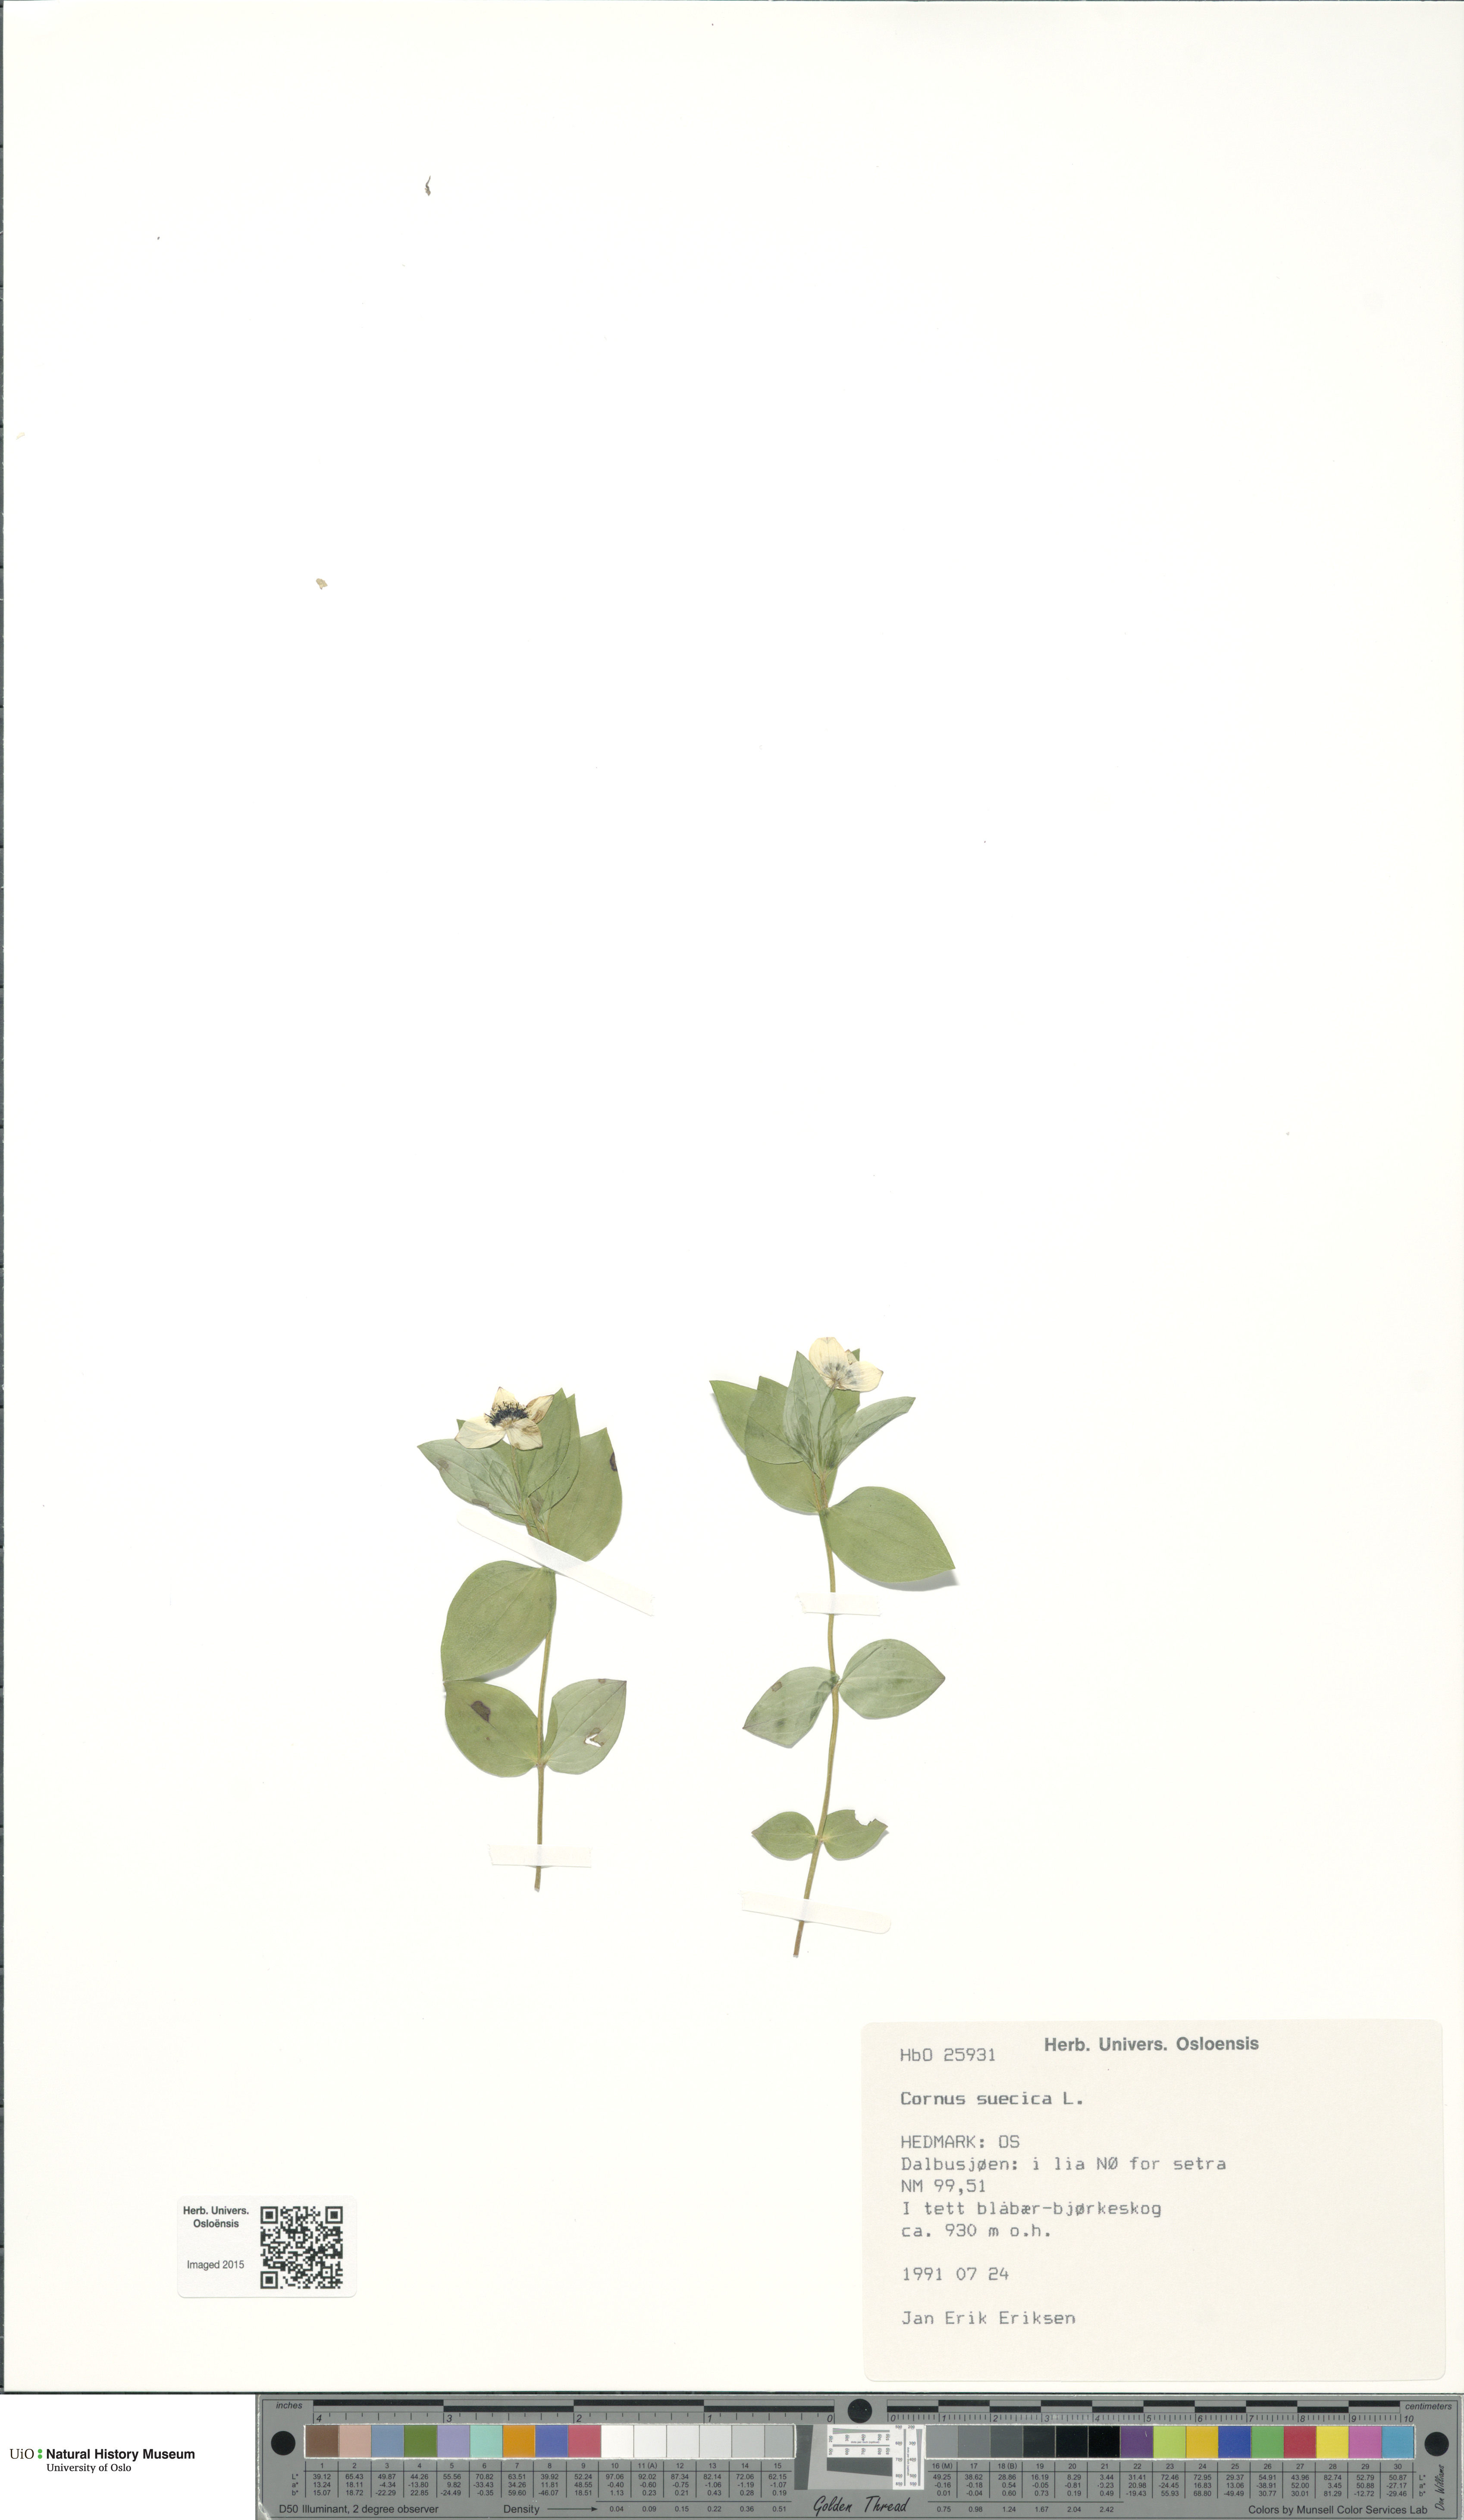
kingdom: Plantae
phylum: Tracheophyta
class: Magnoliopsida
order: Cornales
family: Cornaceae
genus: Cornus
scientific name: Cornus suecica
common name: Dwarf cornel
